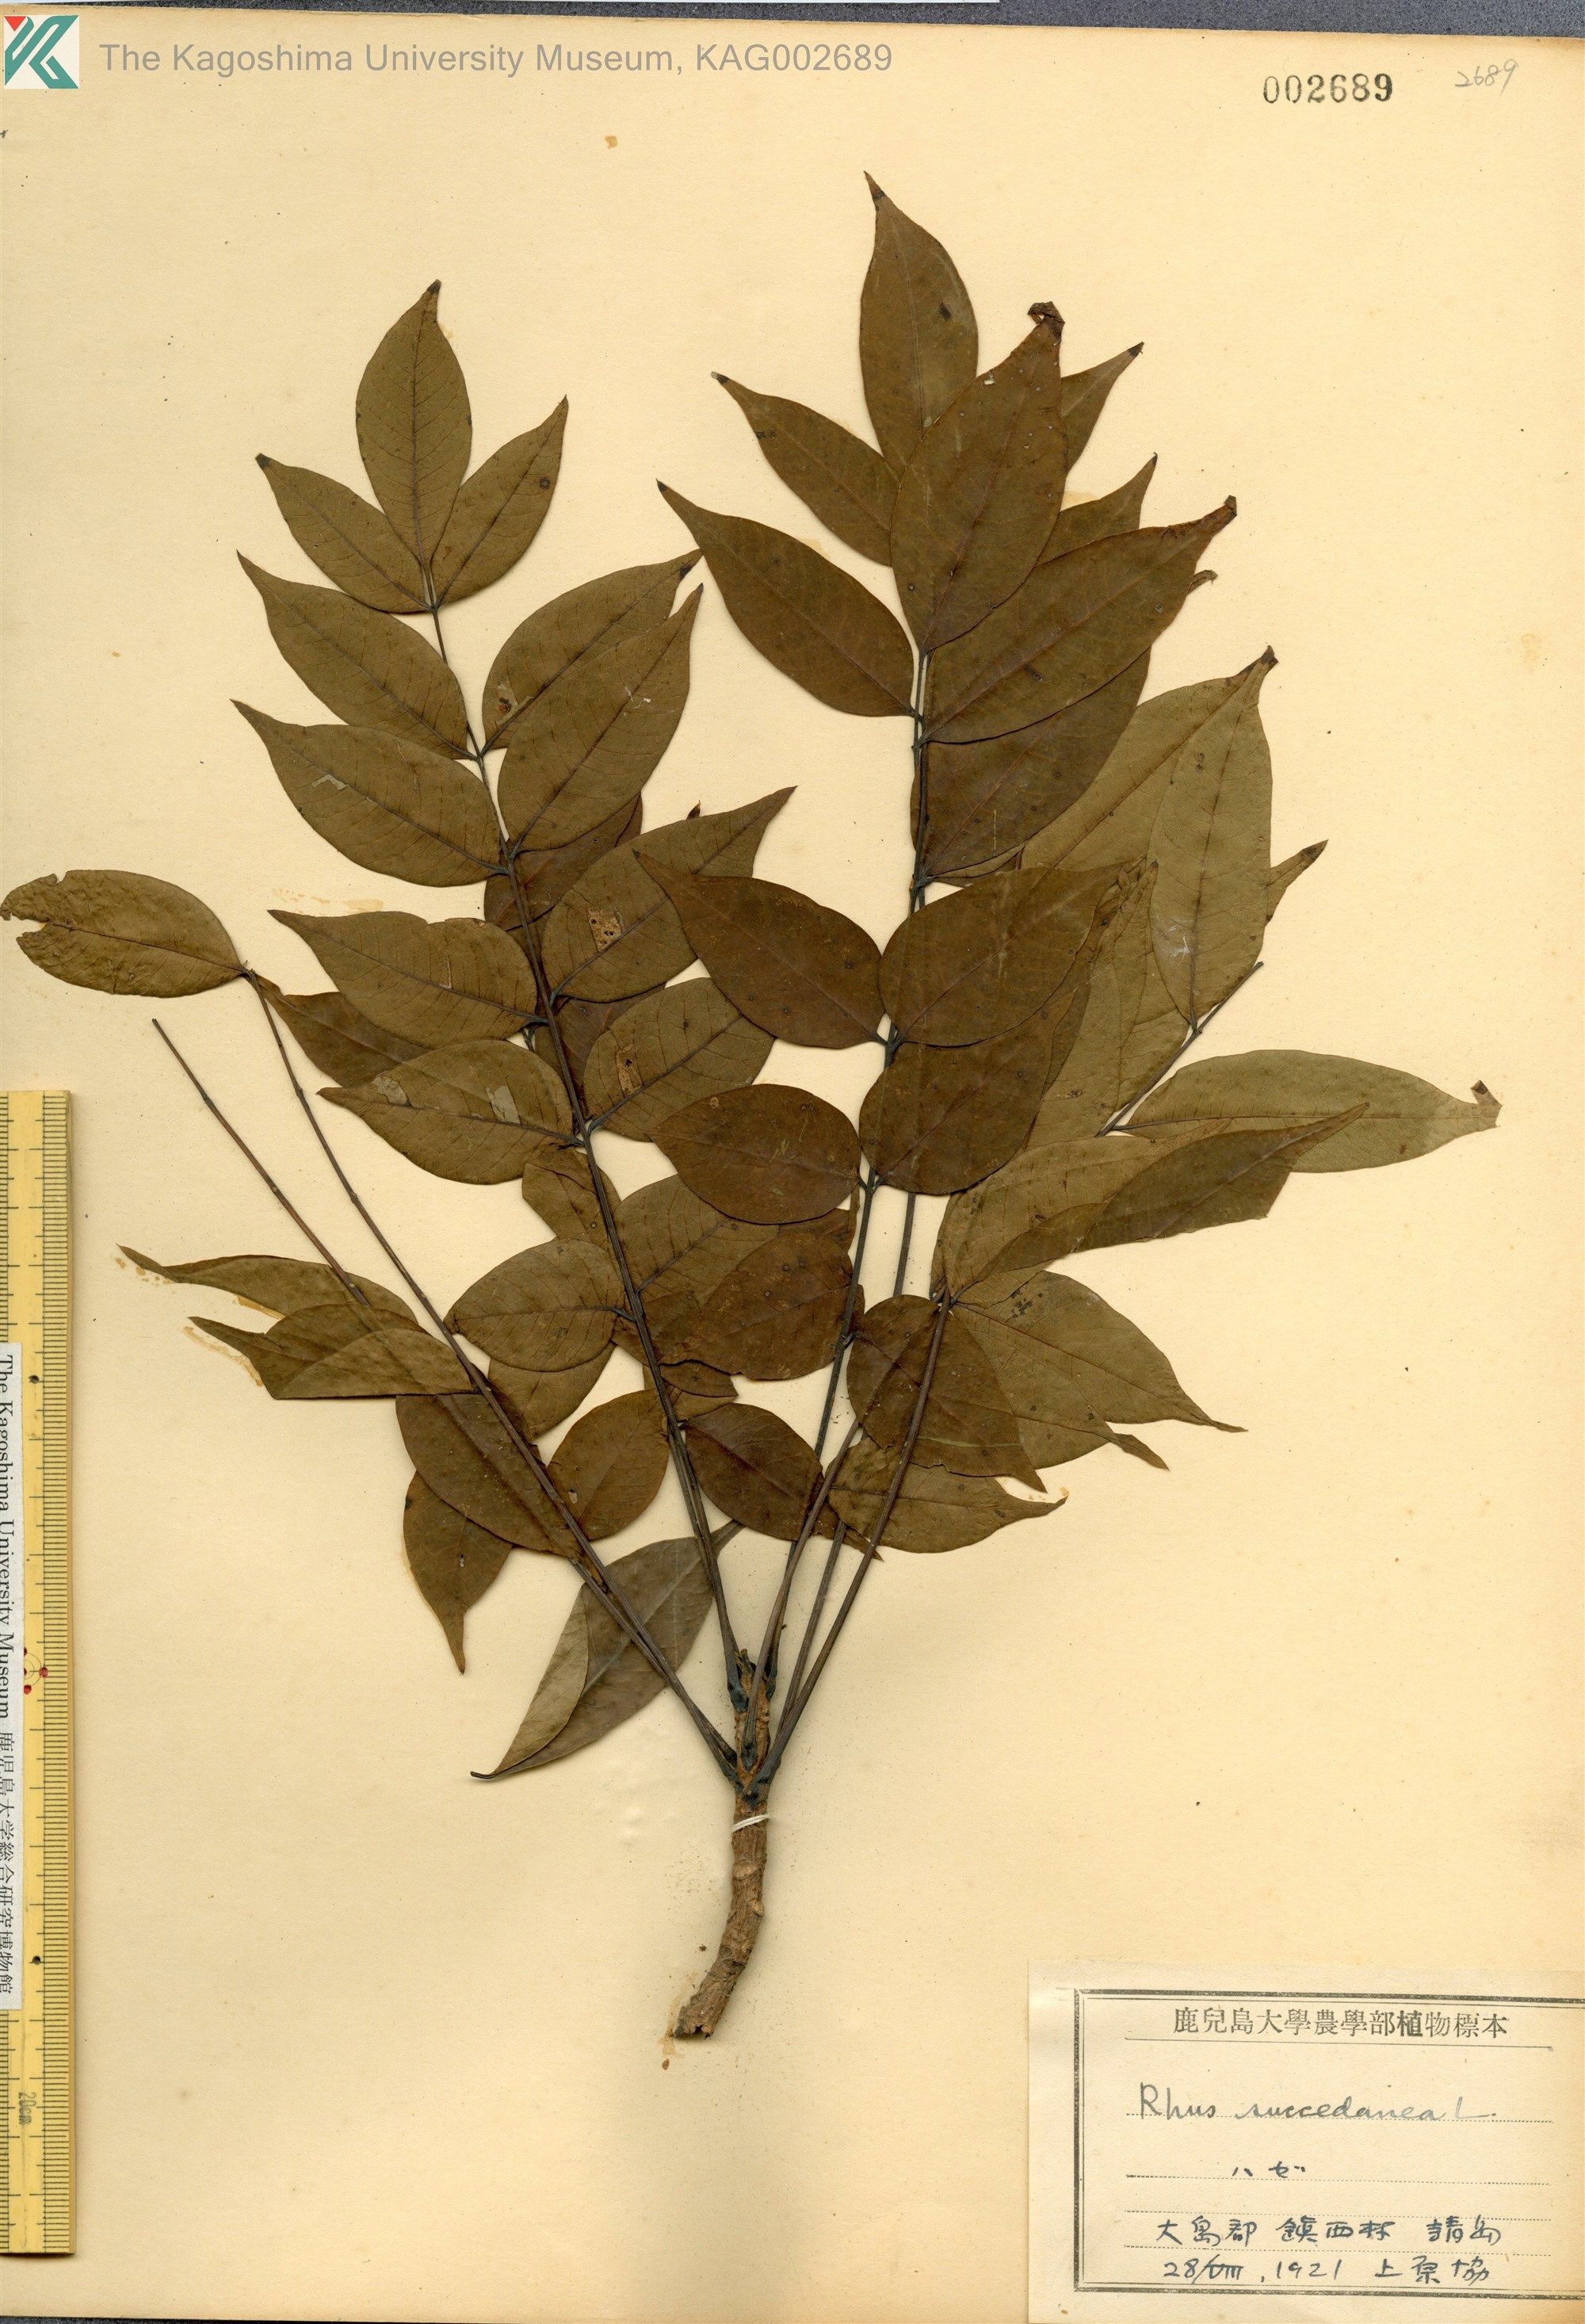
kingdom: Plantae
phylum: Tracheophyta
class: Magnoliopsida
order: Sapindales
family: Anacardiaceae
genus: Toxicodendron
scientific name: Toxicodendron succedaneum
